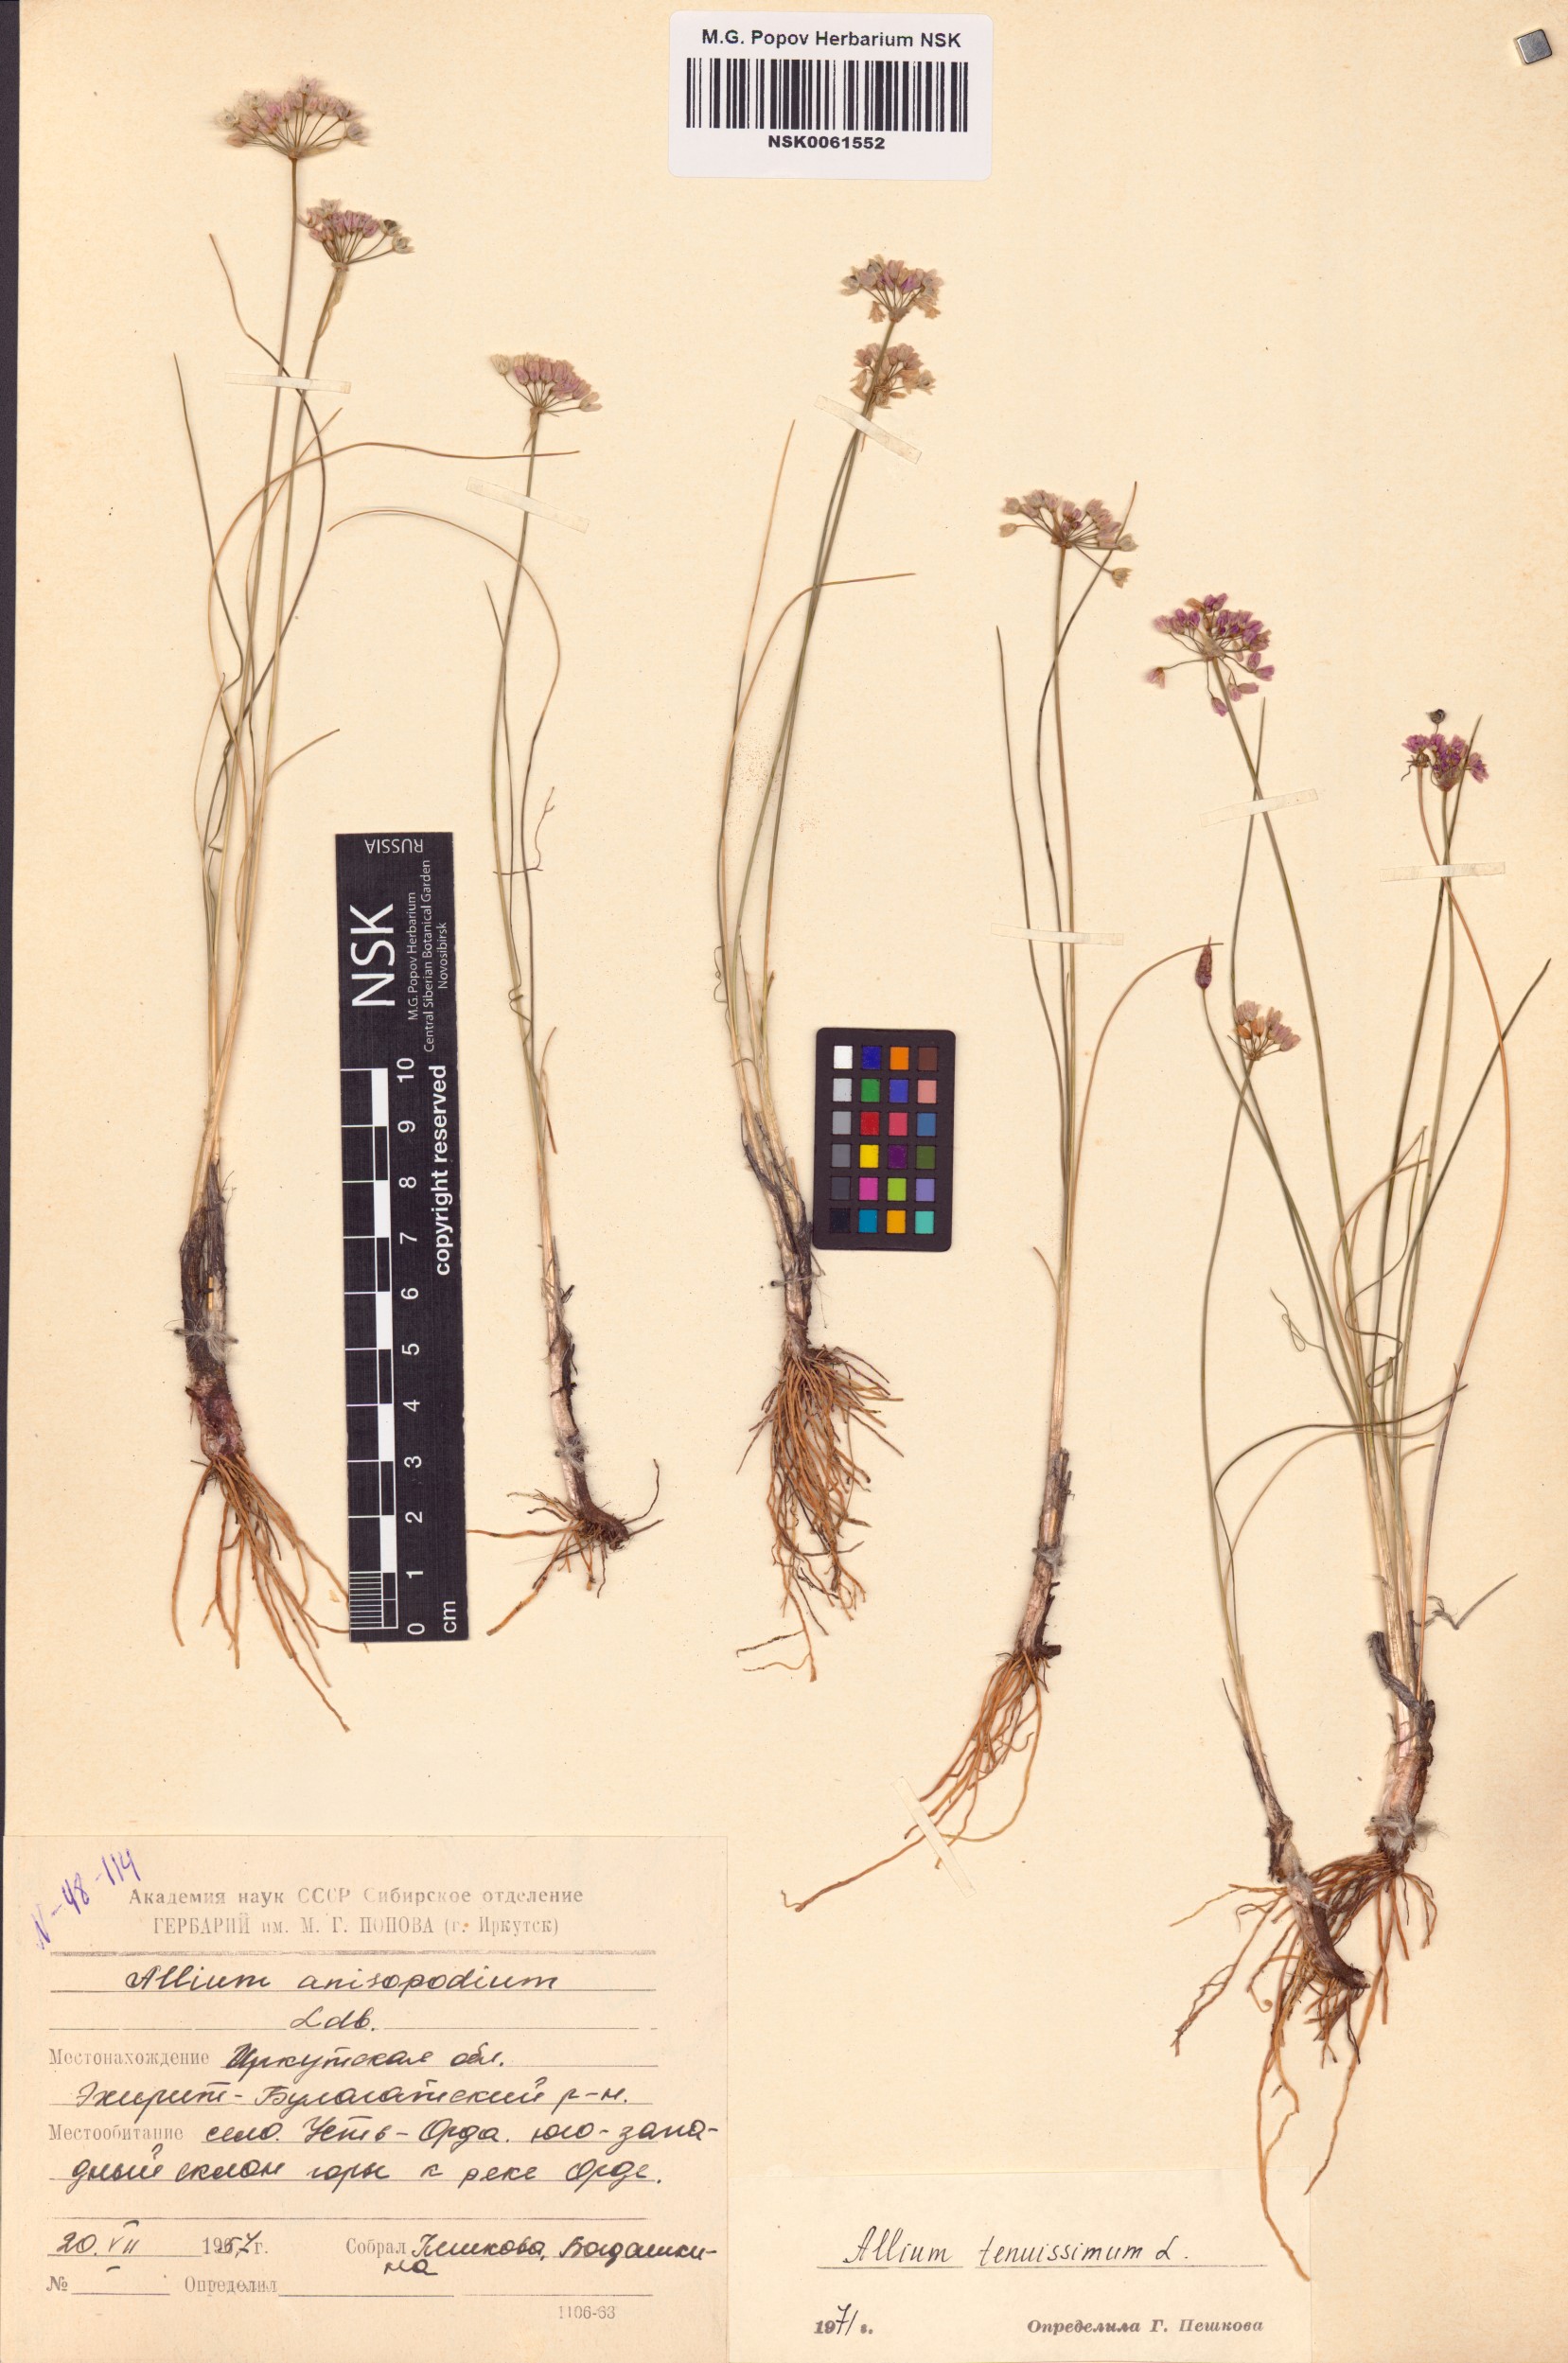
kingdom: Plantae
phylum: Tracheophyta
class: Liliopsida
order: Asparagales
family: Amaryllidaceae
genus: Allium
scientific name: Allium tenuissimum
